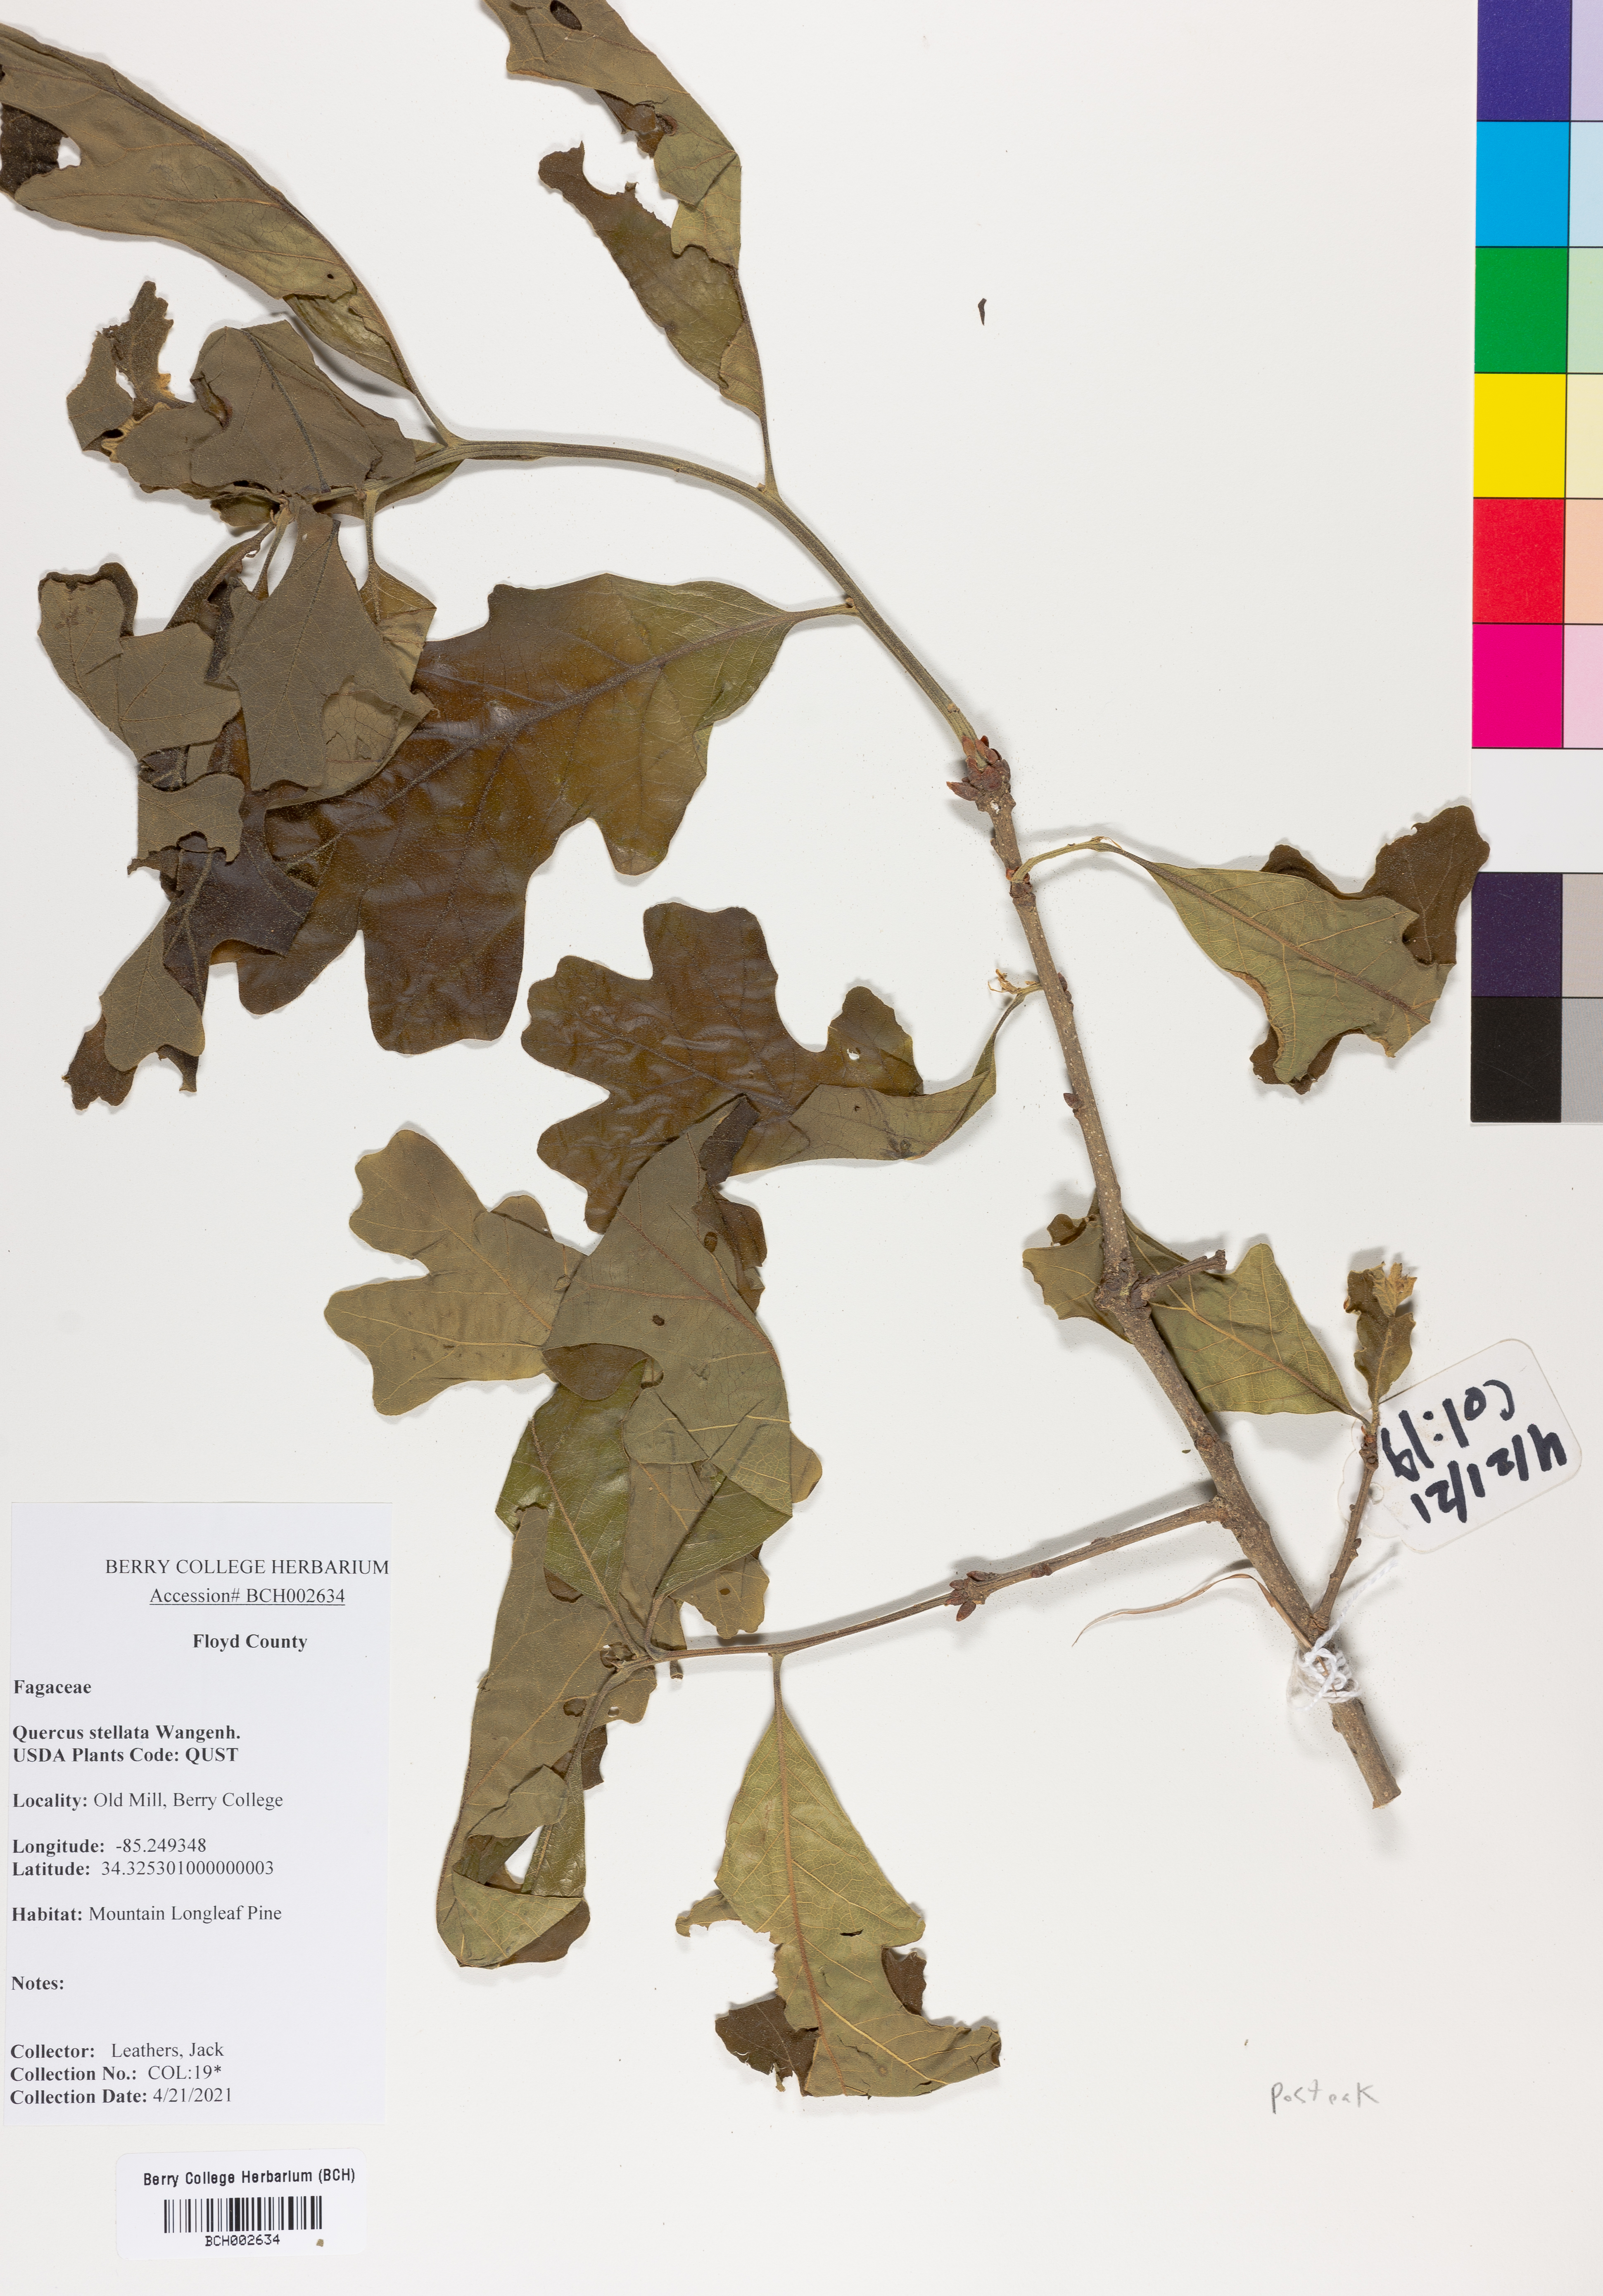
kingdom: Plantae
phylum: Tracheophyta
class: Magnoliopsida
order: Fagales
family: Fagaceae
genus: Quercus
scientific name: Quercus stellata
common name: Post oak
